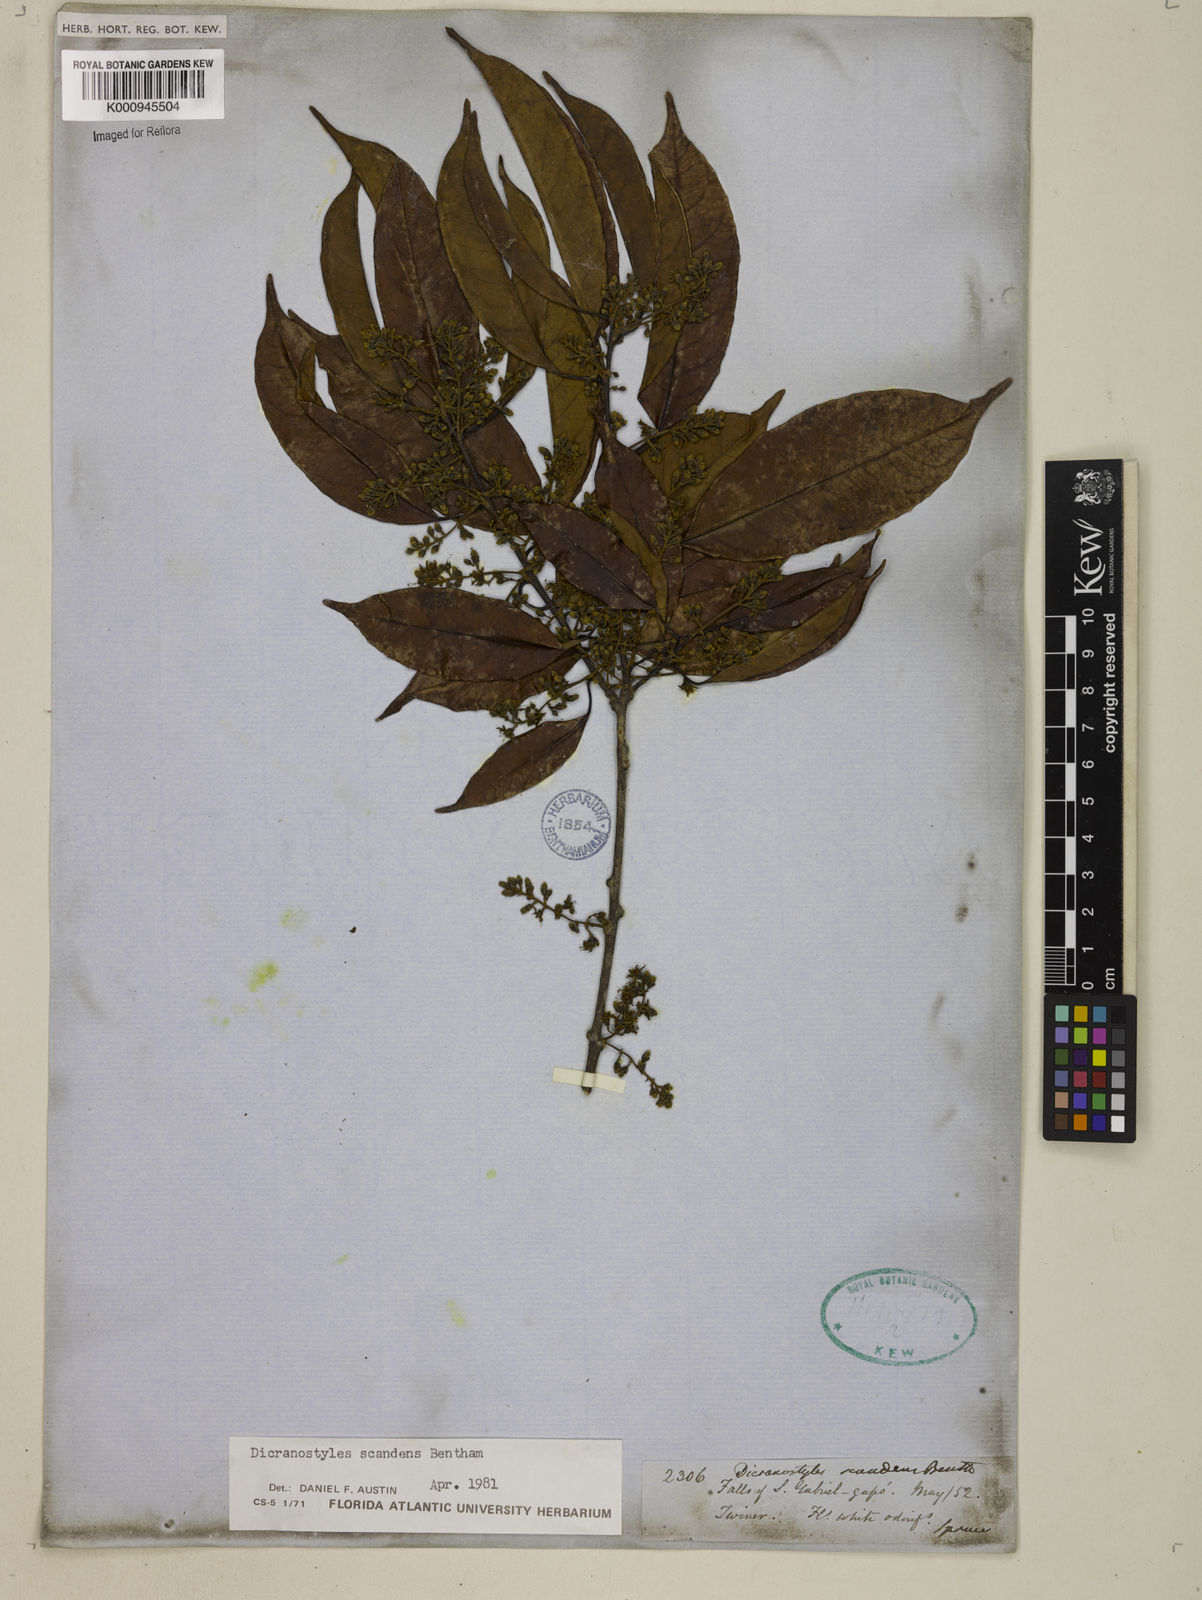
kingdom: Plantae
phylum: Tracheophyta
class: Magnoliopsida
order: Solanales
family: Convolvulaceae
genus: Dicranostyles
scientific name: Dicranostyles scandens
